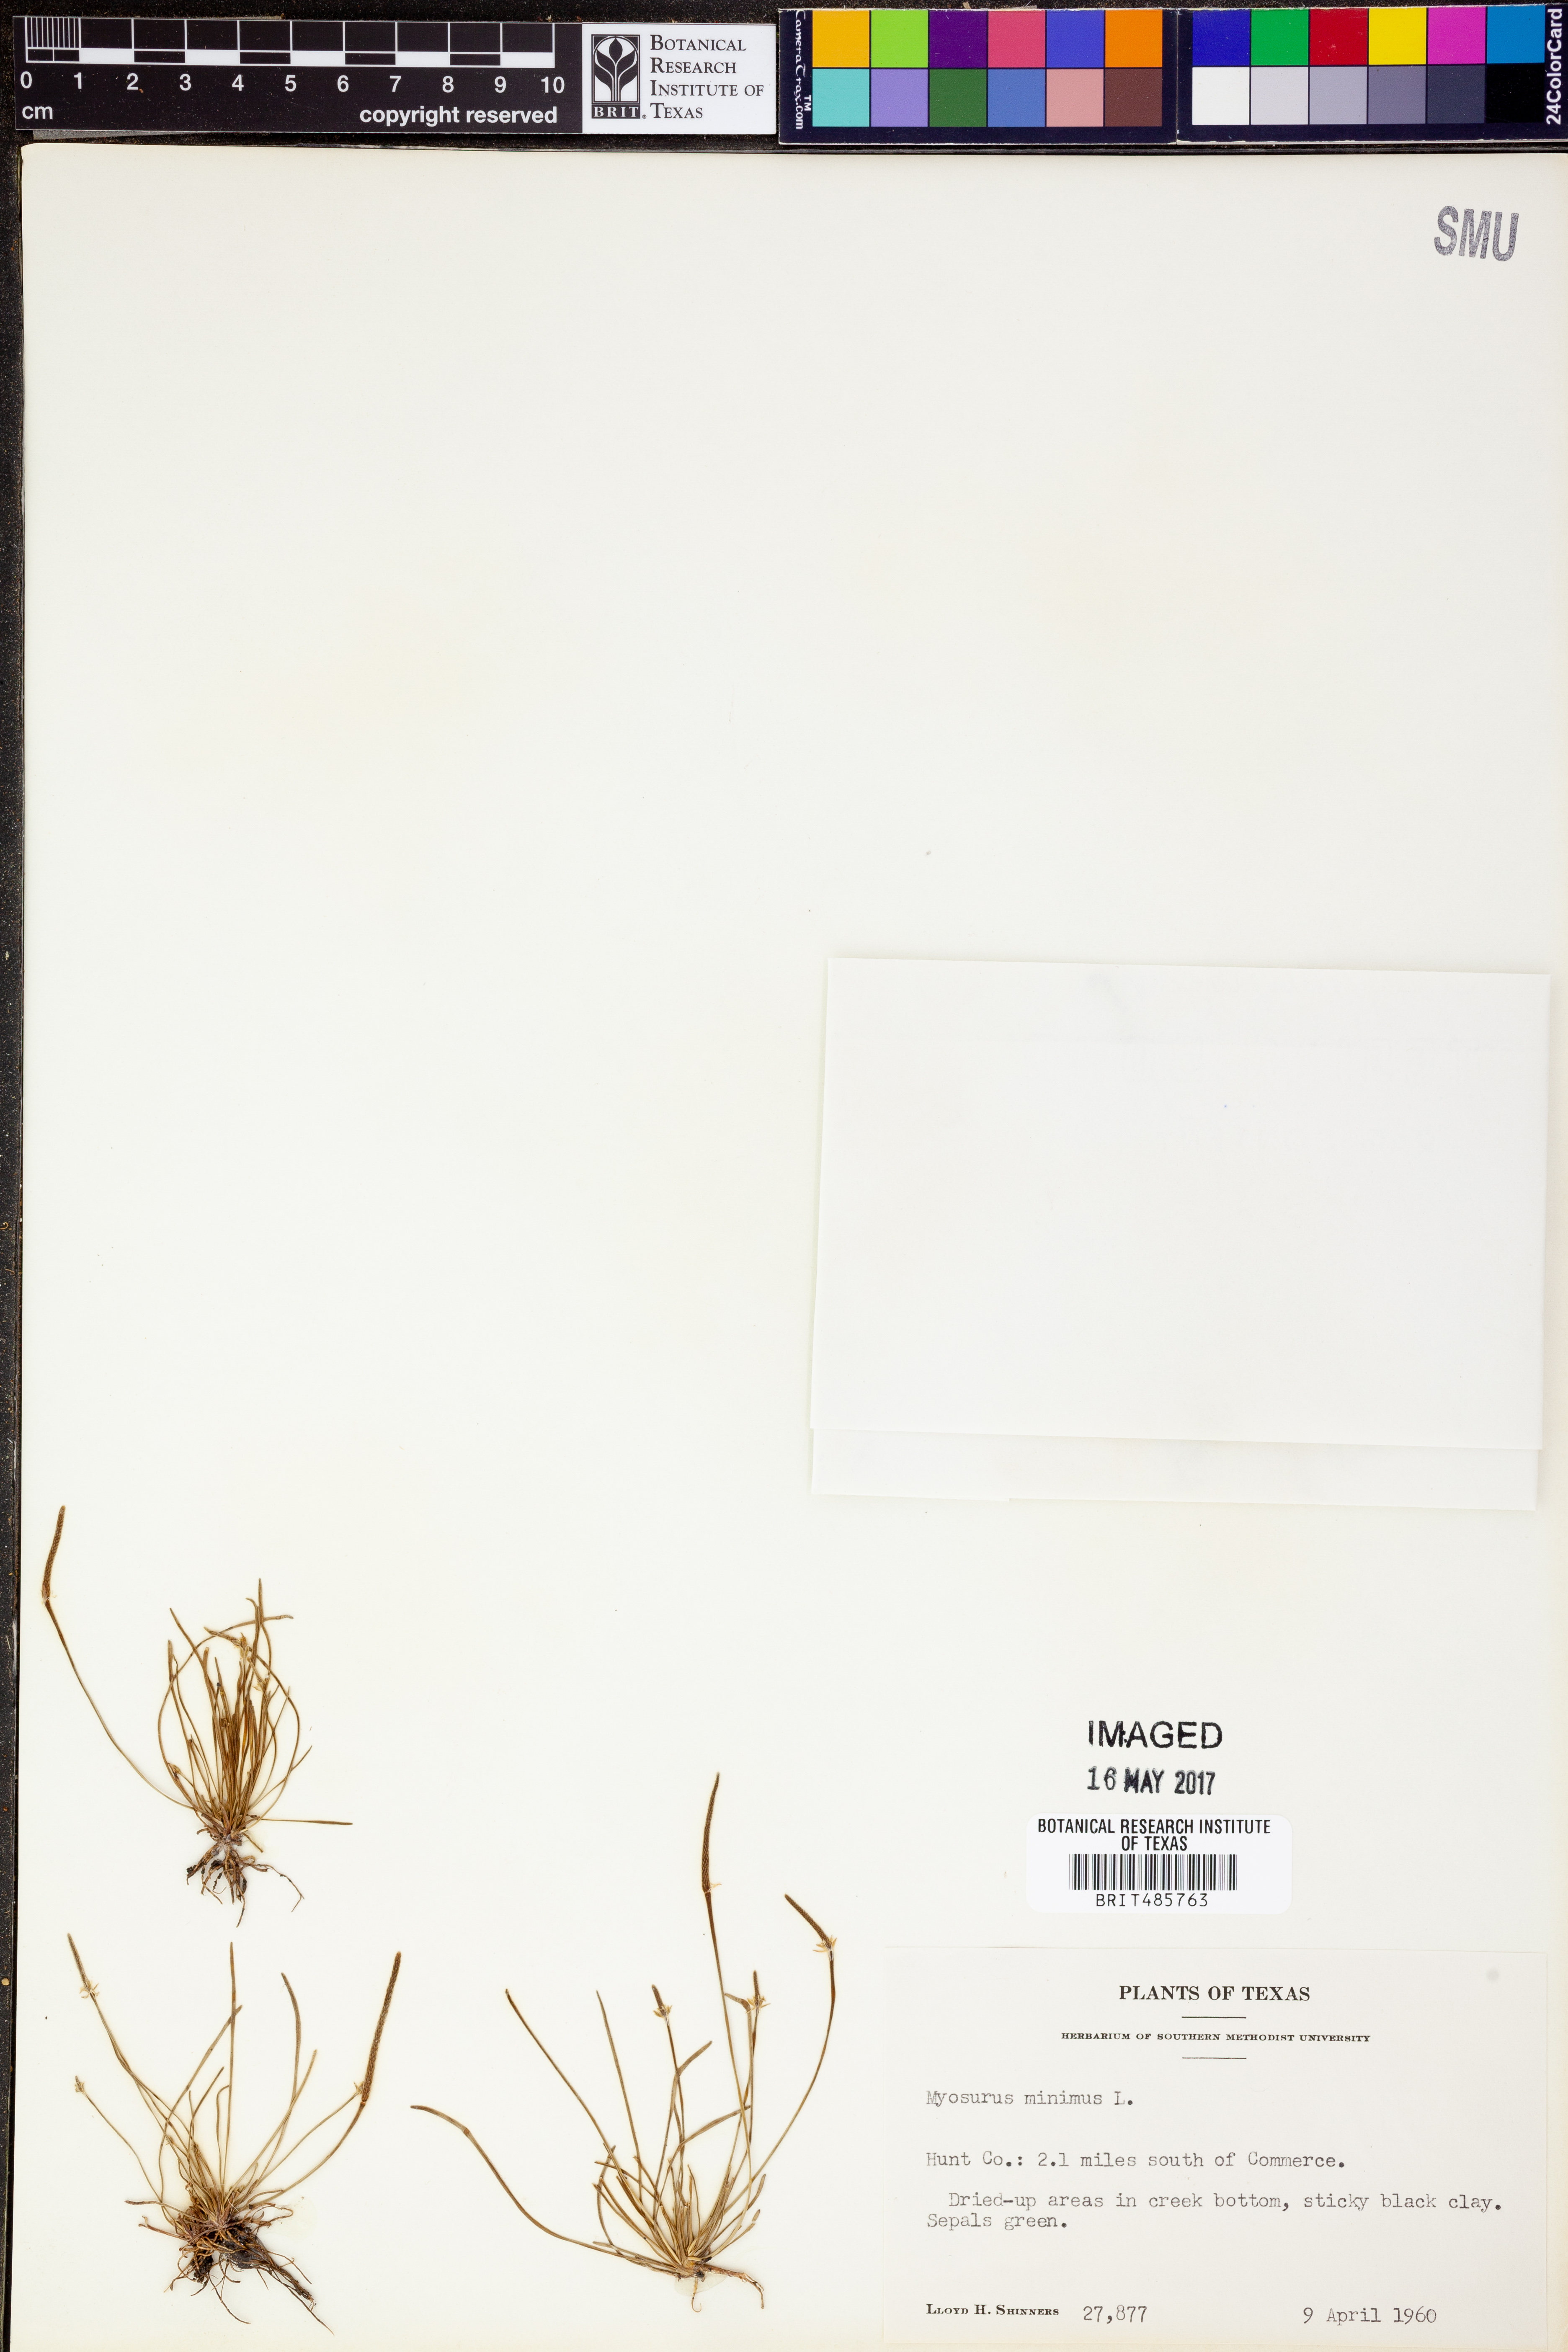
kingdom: Plantae
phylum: Tracheophyta
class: Magnoliopsida
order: Ranunculales
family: Ranunculaceae
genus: Myosurus
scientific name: Myosurus minimus
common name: Mousetail
